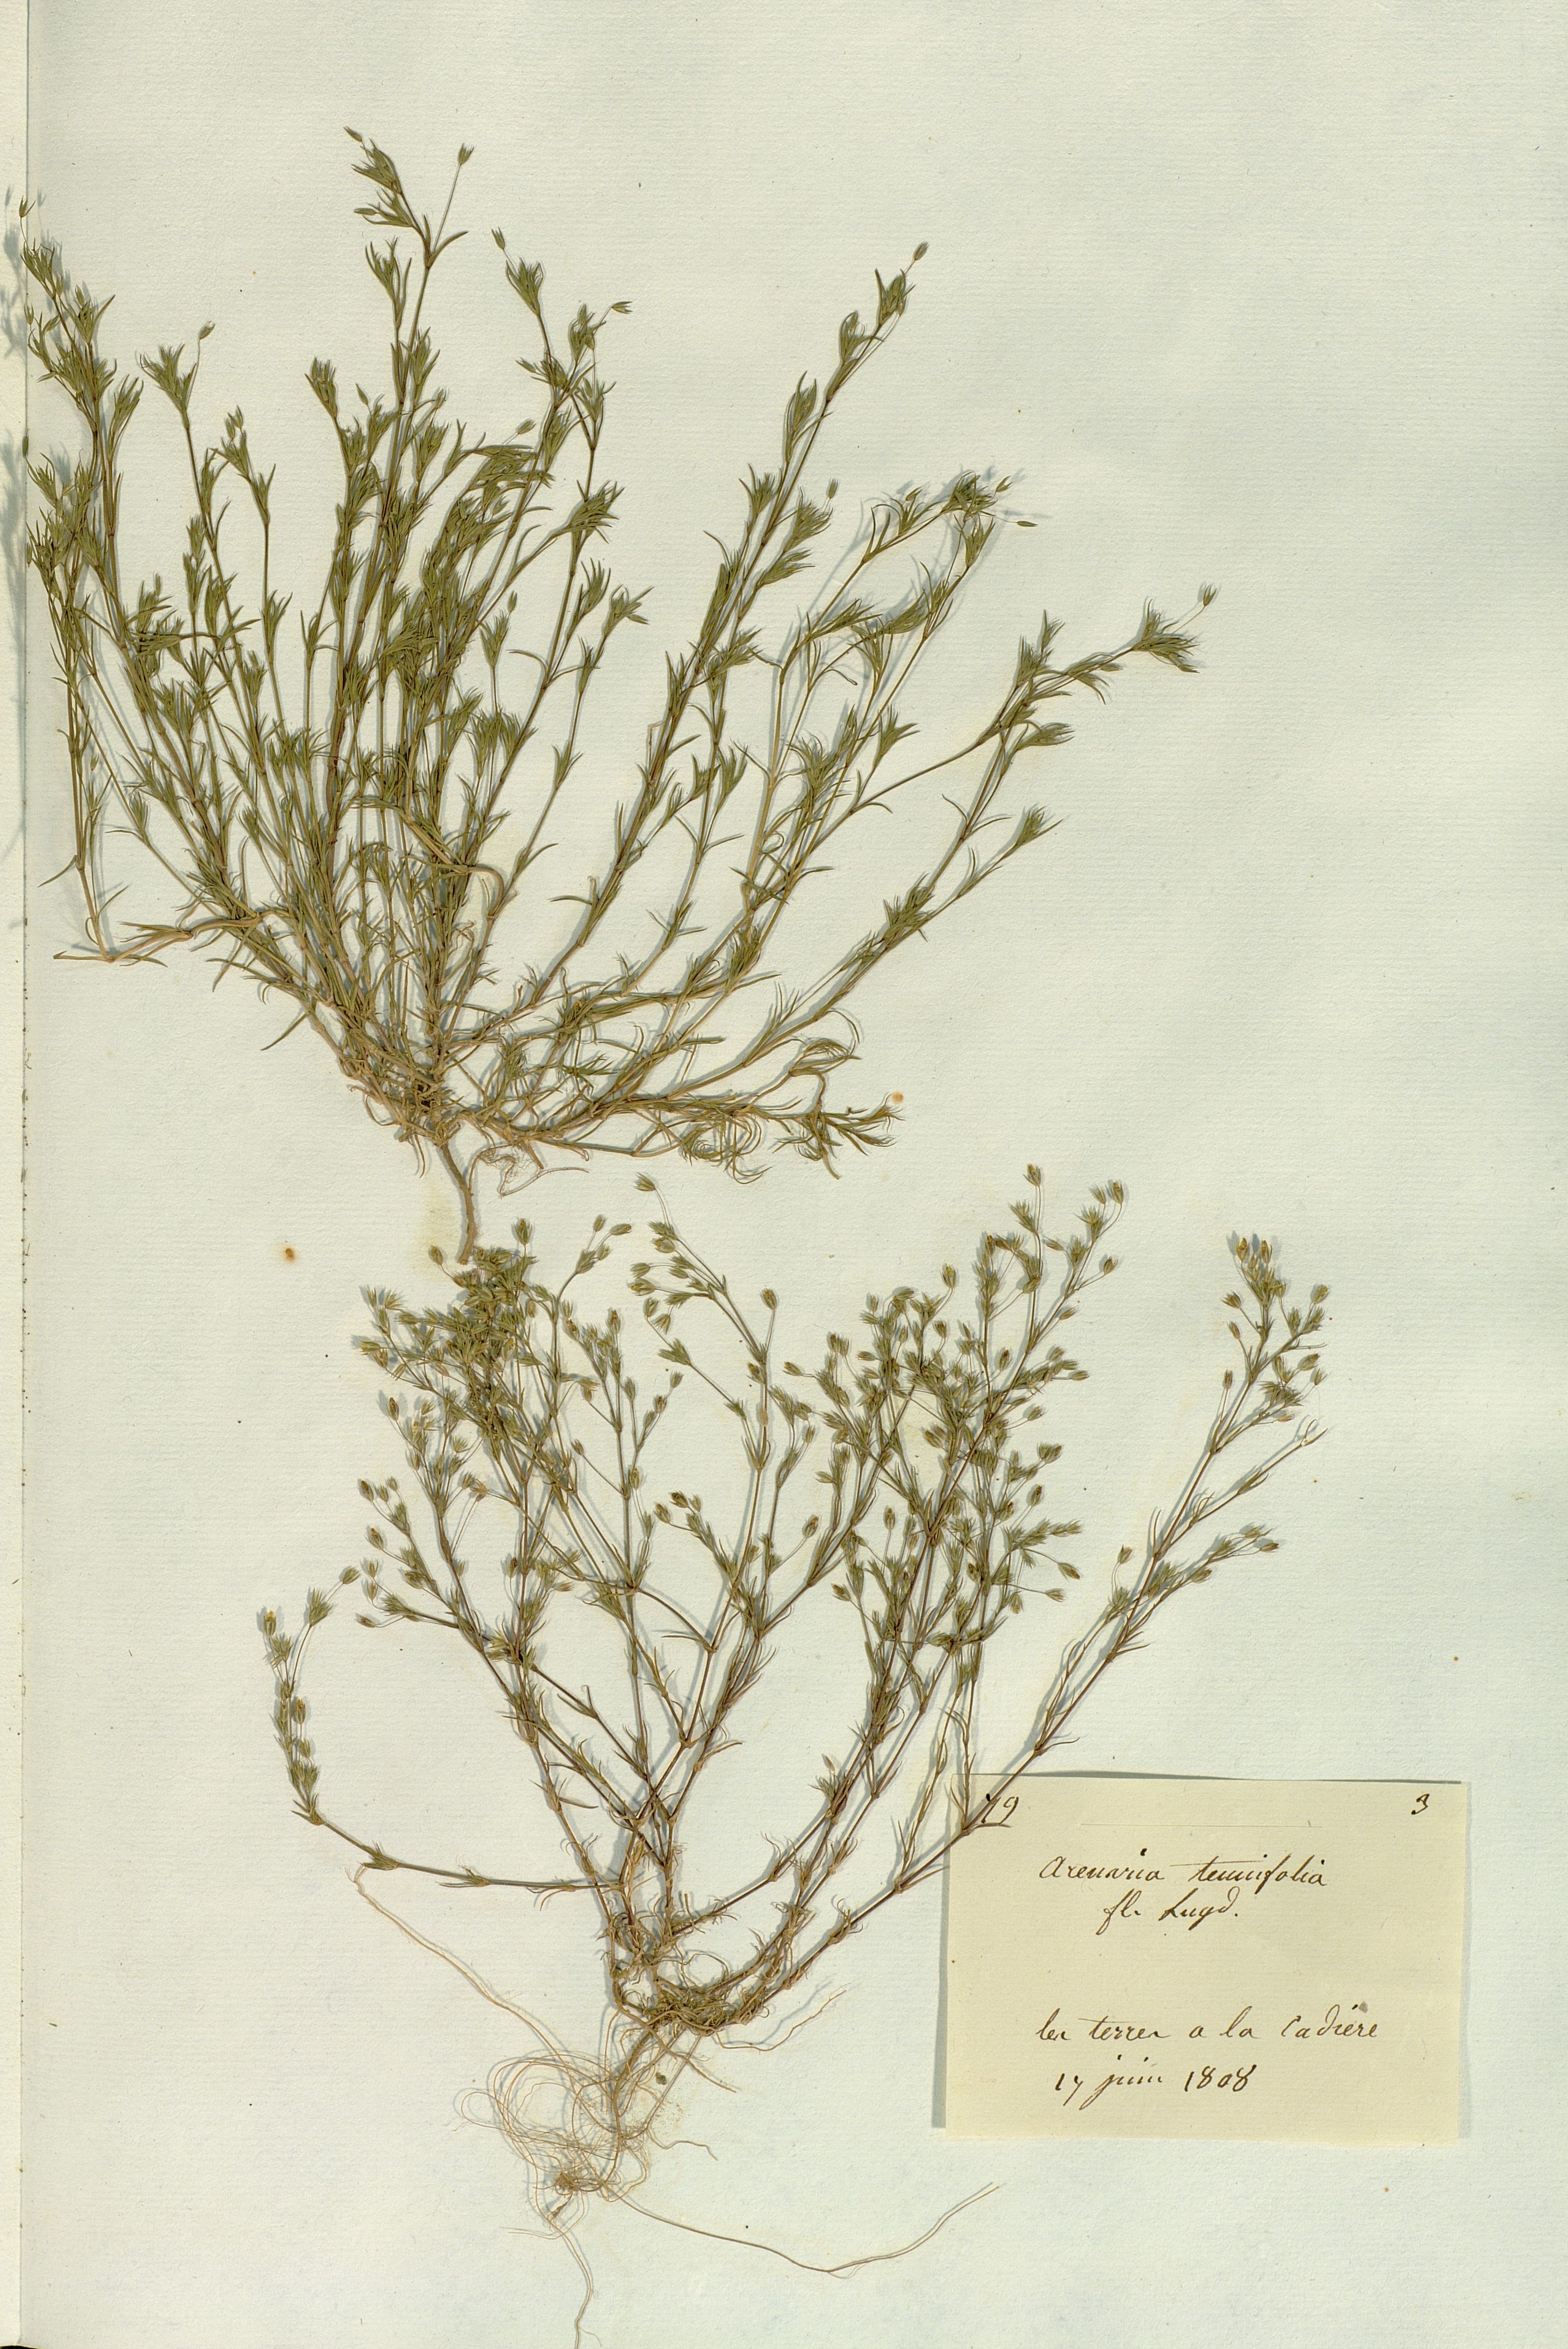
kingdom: Plantae
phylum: Tracheophyta
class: Magnoliopsida
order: Caryophyllales
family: Caryophyllaceae
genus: Sabulina
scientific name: Sabulina tenuifolia
